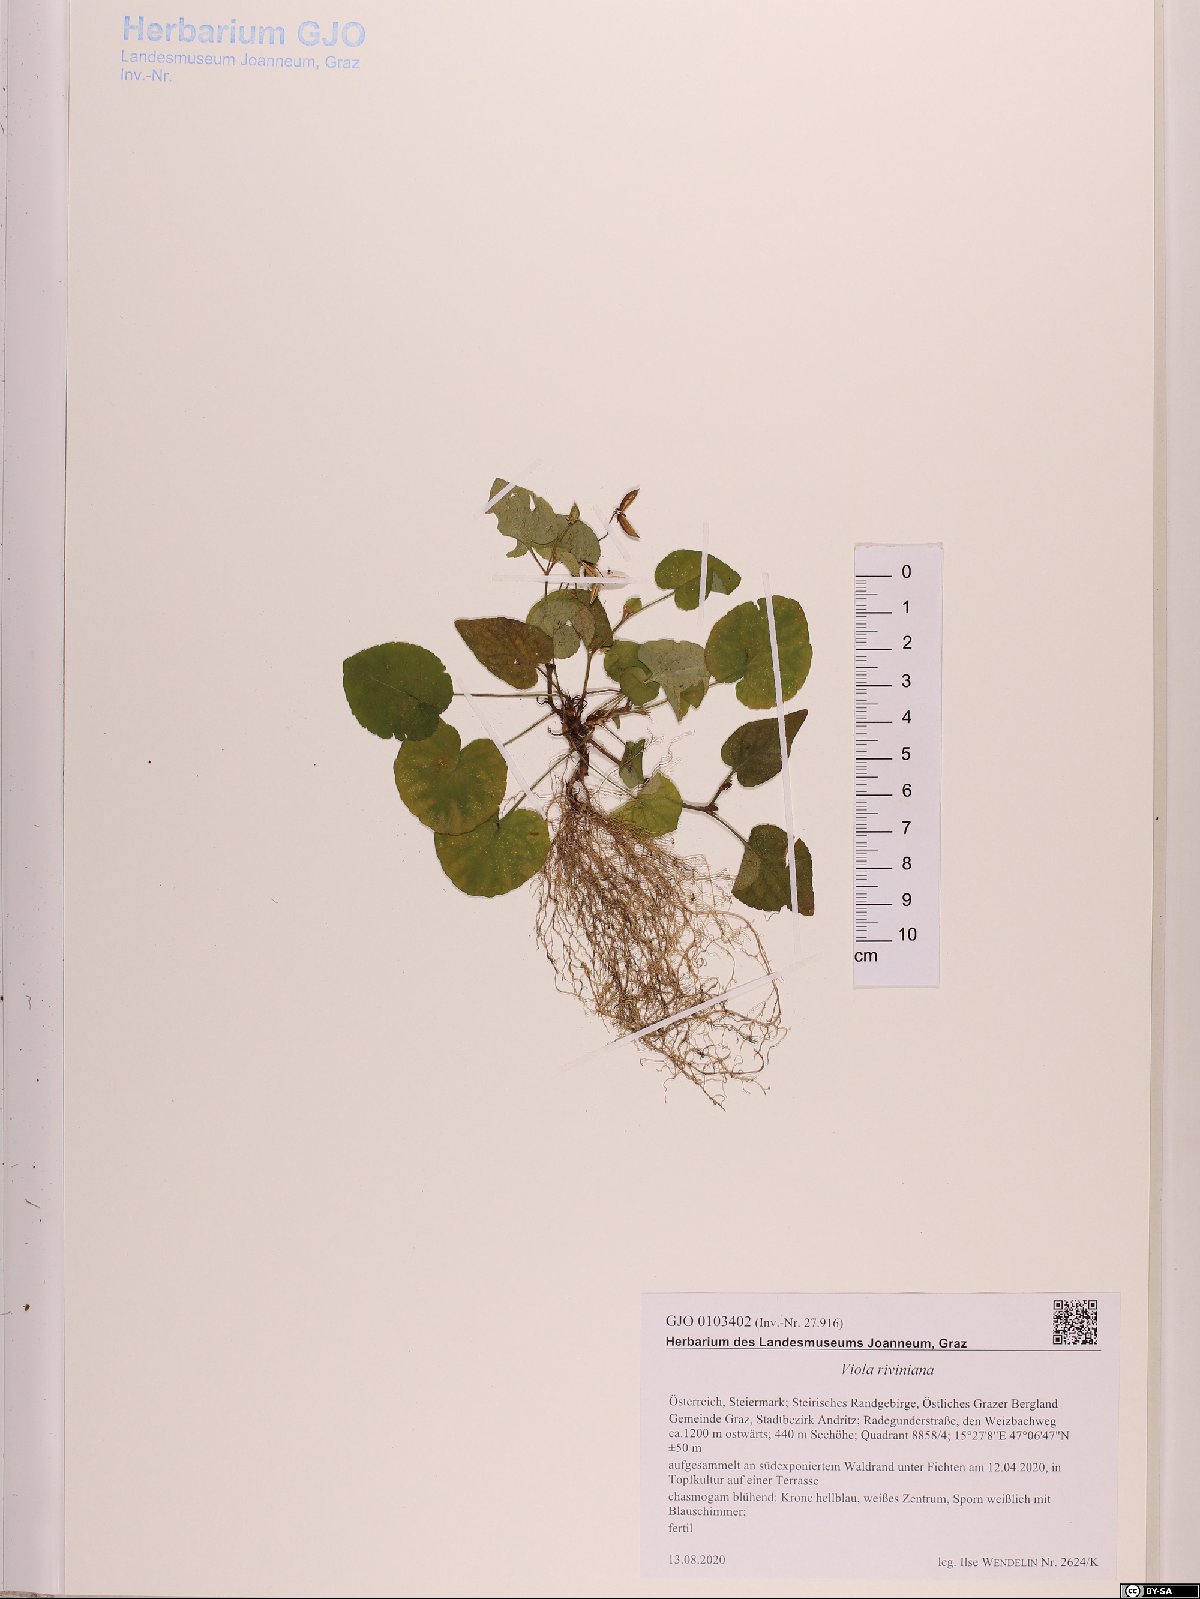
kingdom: Plantae
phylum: Tracheophyta
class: Magnoliopsida
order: Malpighiales
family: Violaceae
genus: Viola
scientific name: Viola riviniana
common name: Common dog-violet
